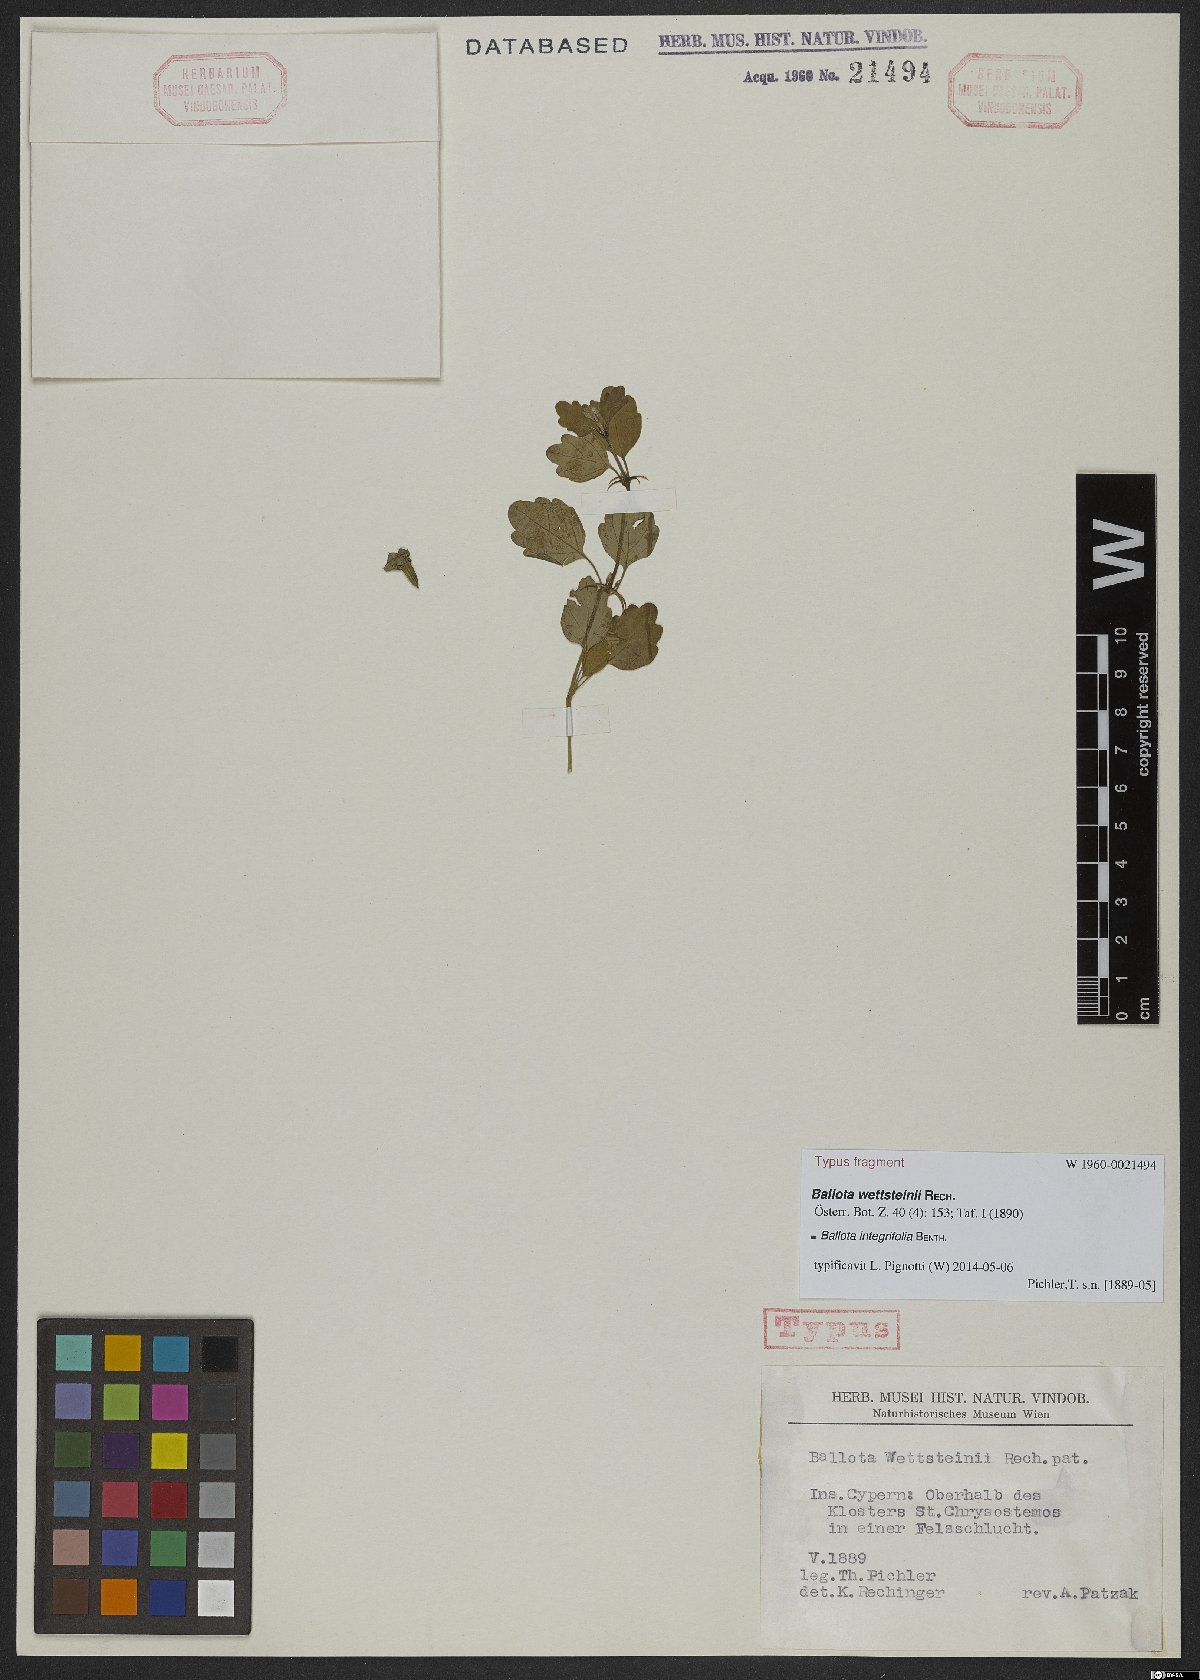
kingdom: Plantae
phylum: Tracheophyta
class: Magnoliopsida
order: Lamiales
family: Lamiaceae
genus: Acanthoprasium
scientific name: Acanthoprasium integrifolium
